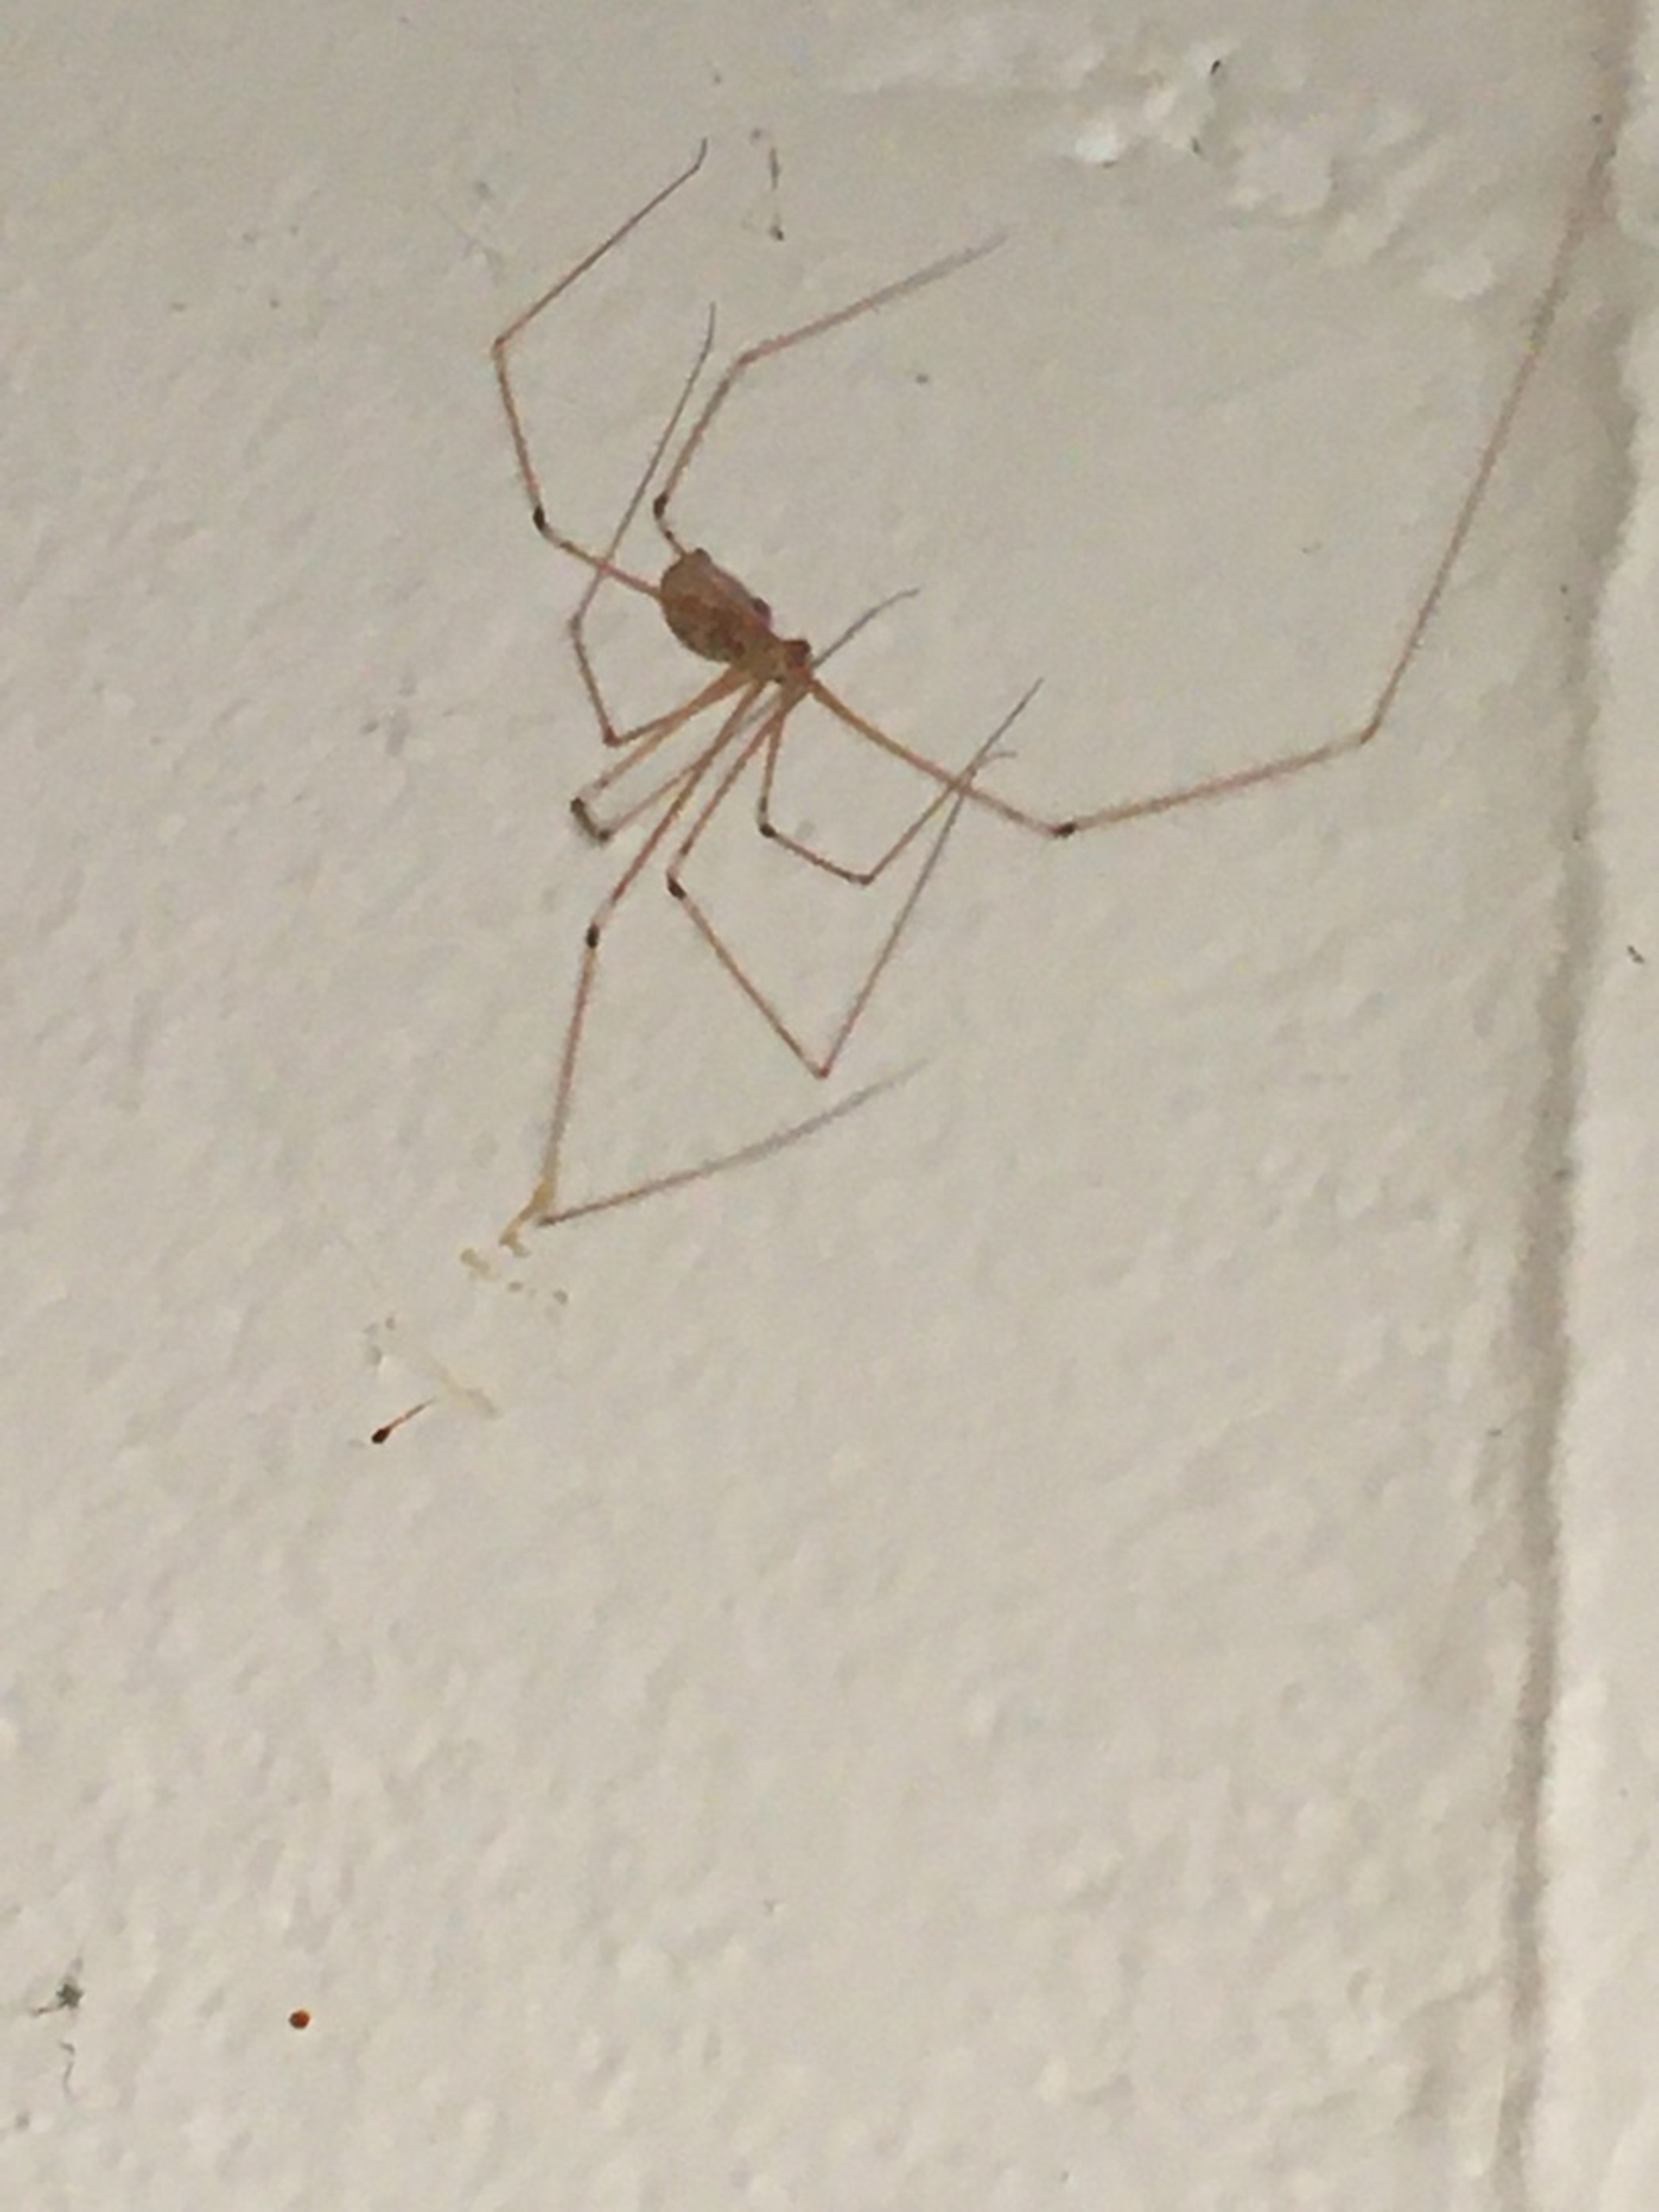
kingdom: Animalia
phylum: Arthropoda
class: Arachnida
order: Araneae
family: Pholcidae
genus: Pholcus
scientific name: Pholcus phalangioides
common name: Mejeredderkop
